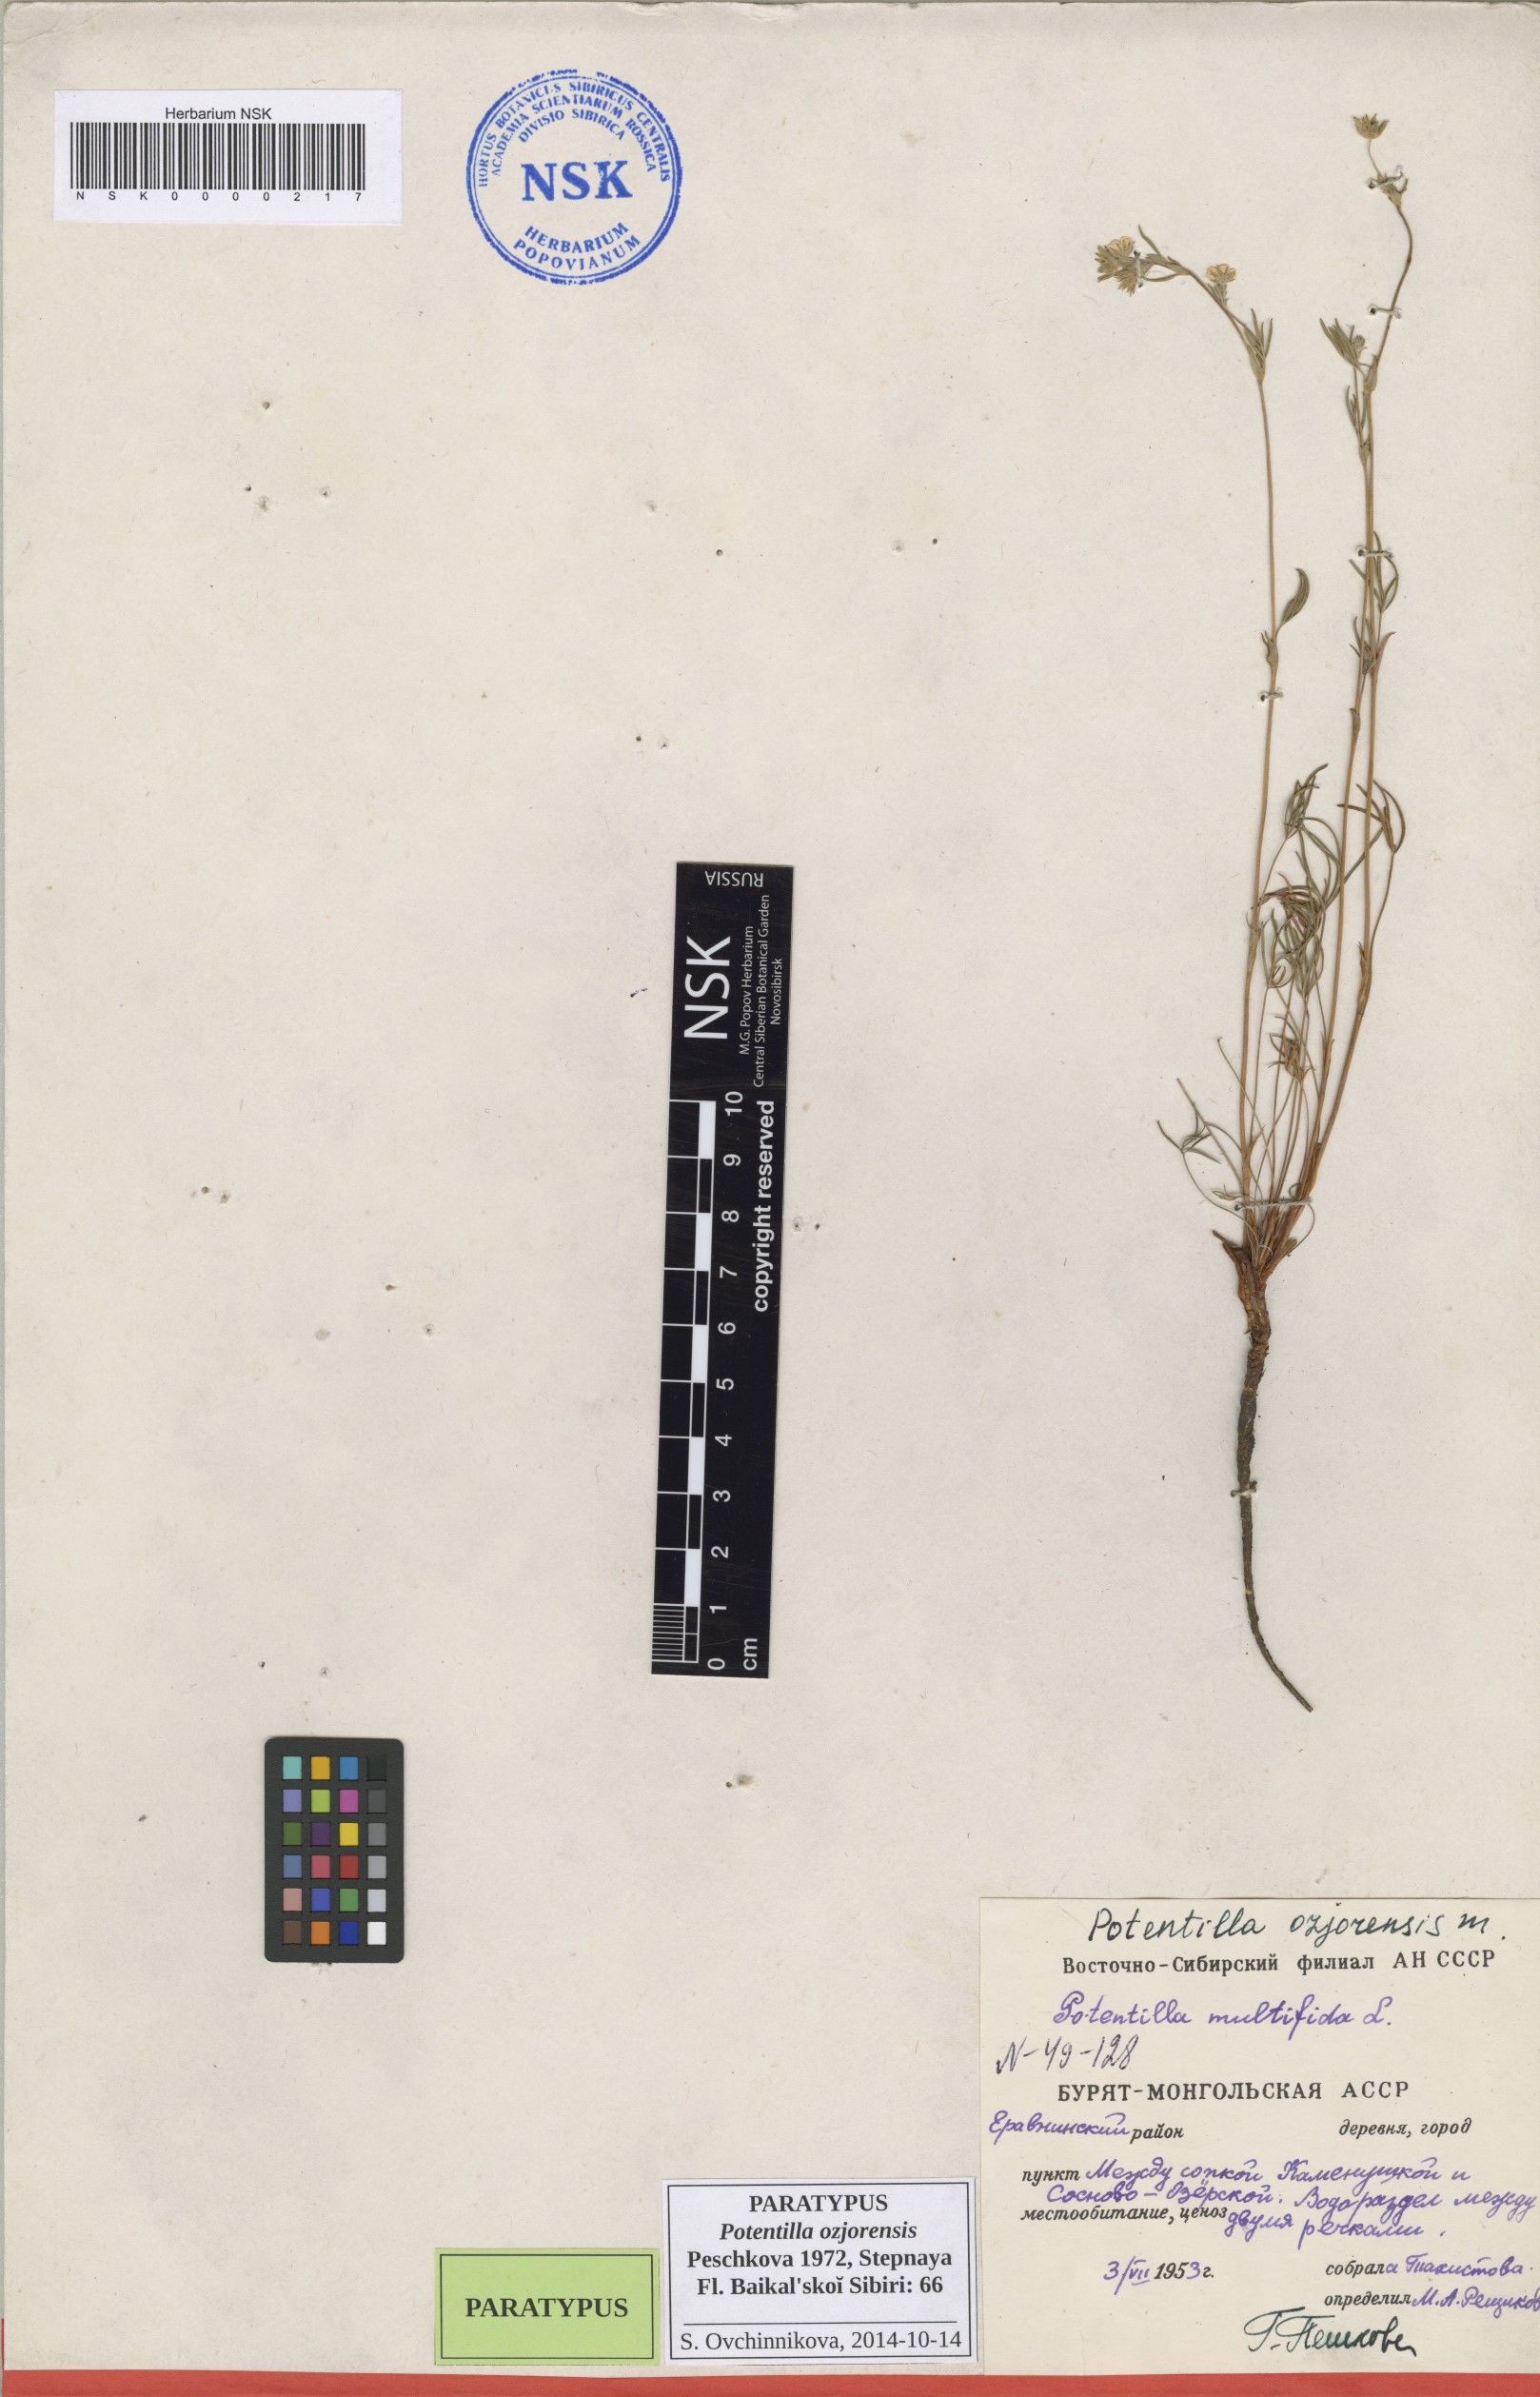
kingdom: Plantae
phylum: Tracheophyta
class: Magnoliopsida
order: Rosales
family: Rosaceae
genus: Potentilla
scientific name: Potentilla ozjorensis
